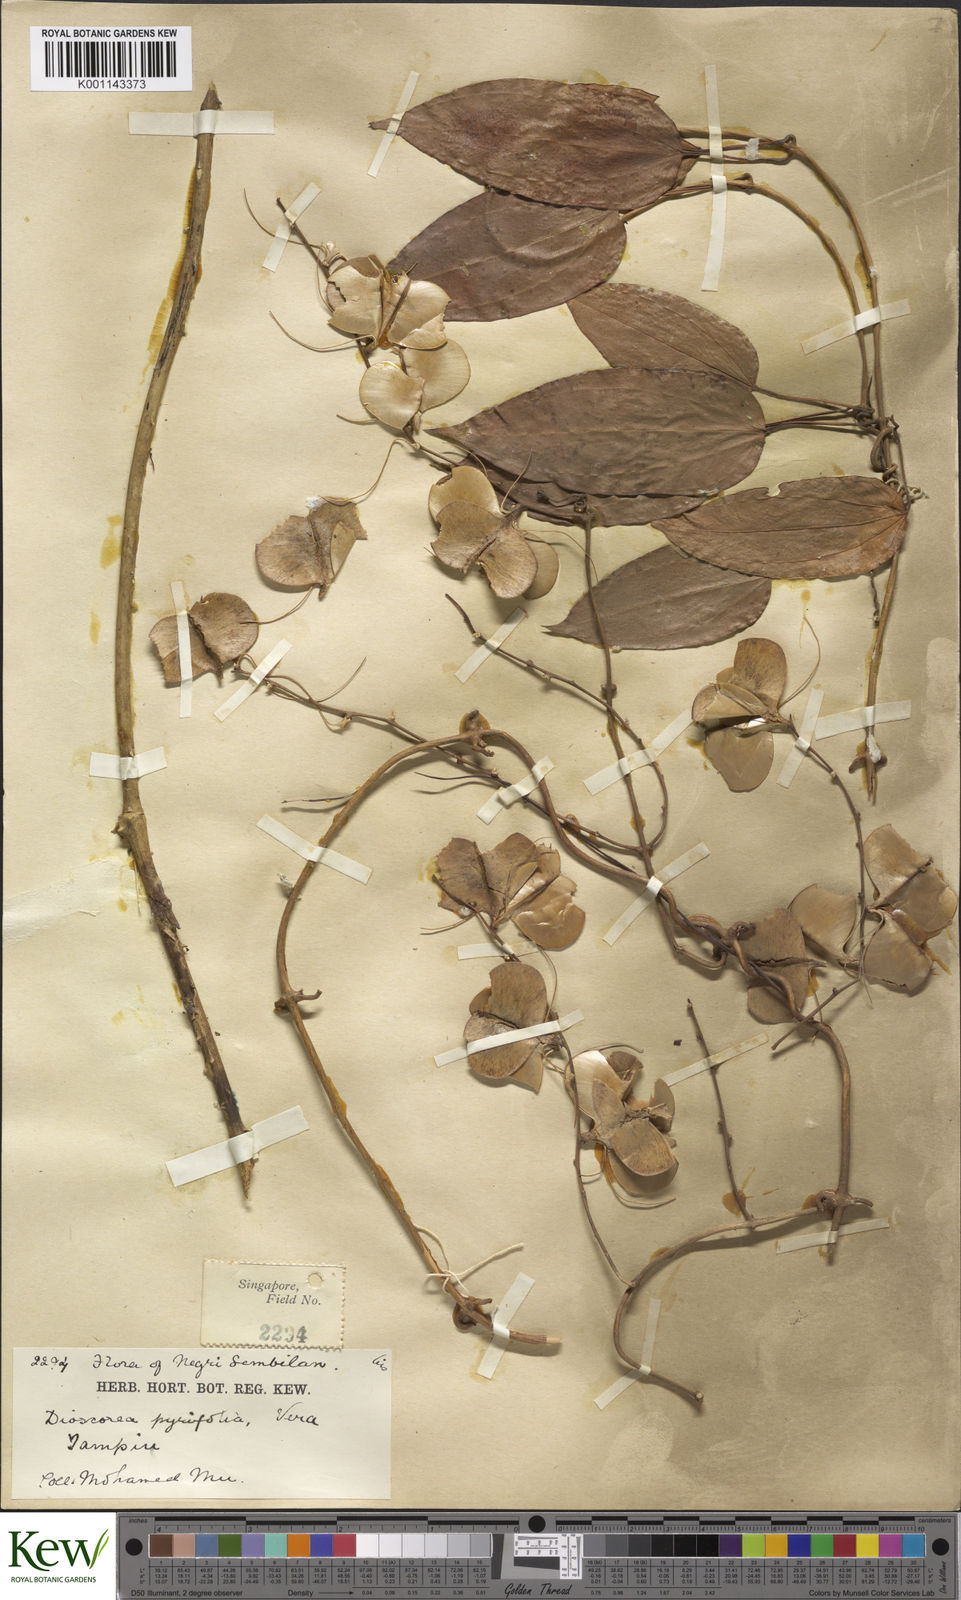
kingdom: Plantae
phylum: Tracheophyta
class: Liliopsida
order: Dioscoreales
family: Dioscoreaceae
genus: Dioscorea
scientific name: Dioscorea pyrifolia
